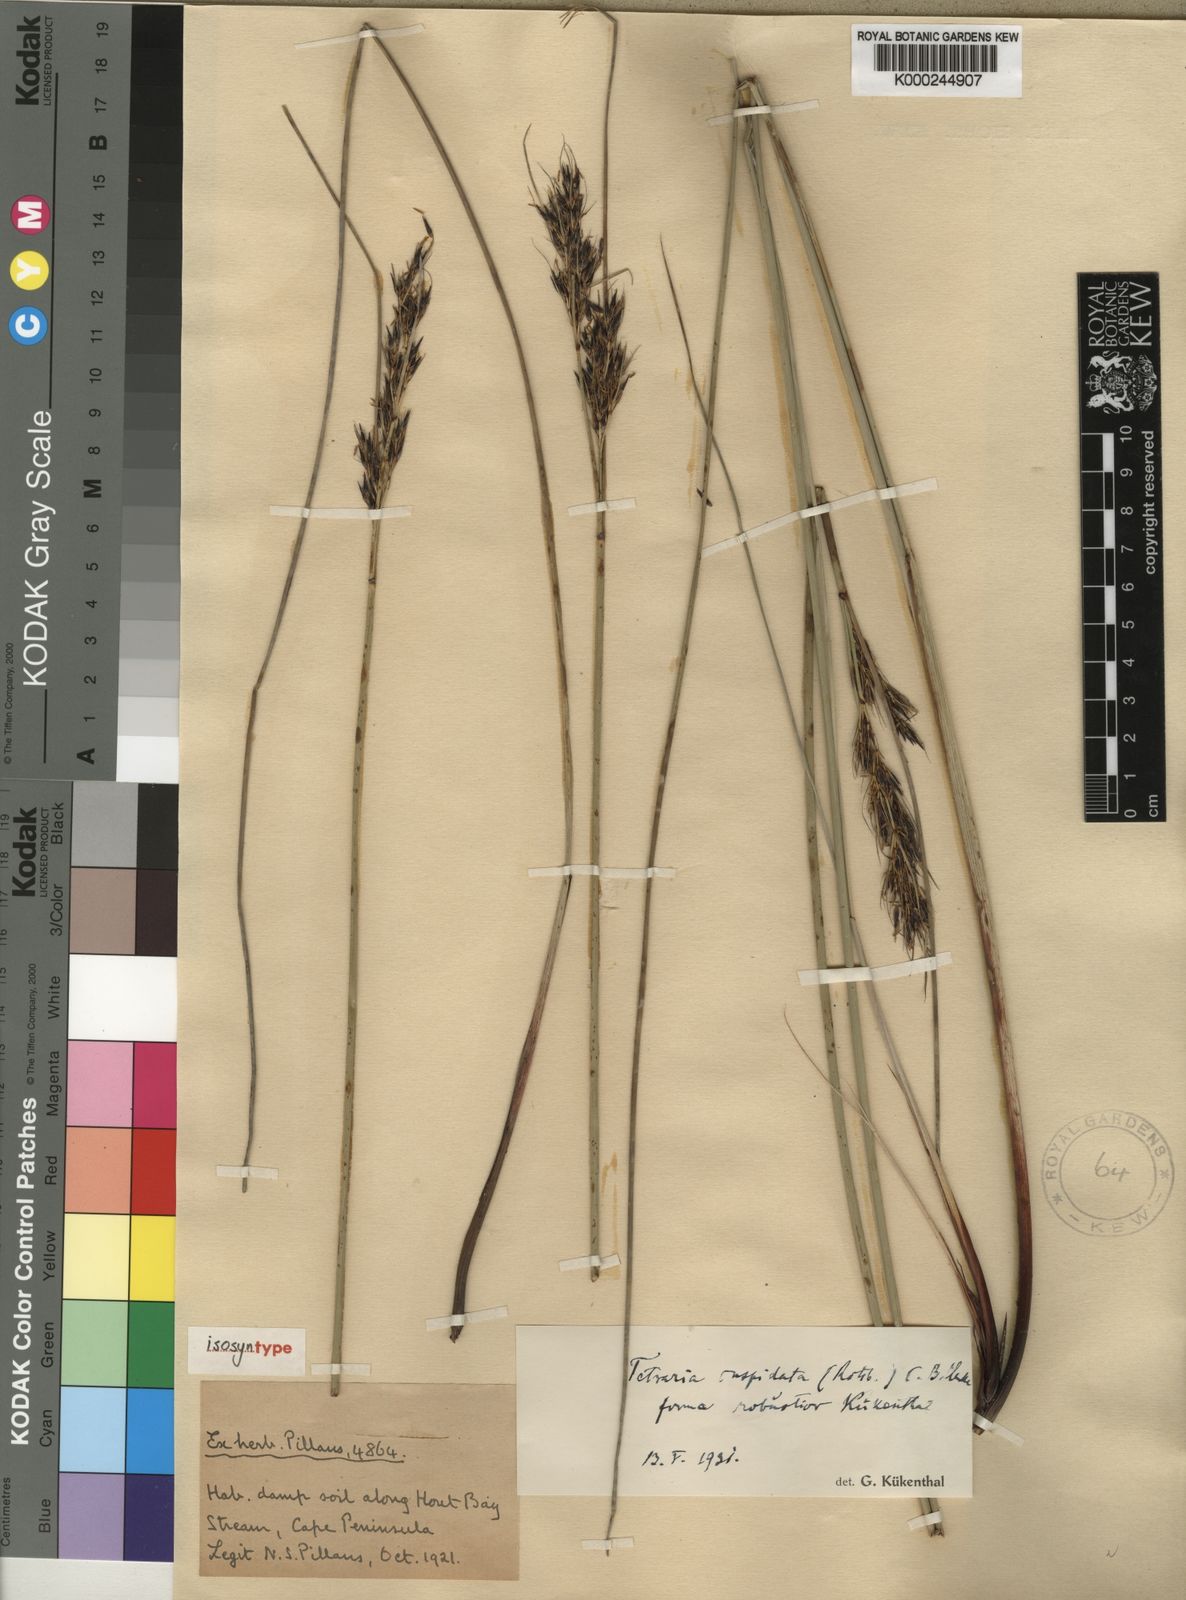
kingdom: Plantae
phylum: Tracheophyta
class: Liliopsida
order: Poales
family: Cyperaceae
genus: Schoenus
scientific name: Schoenus riparius
